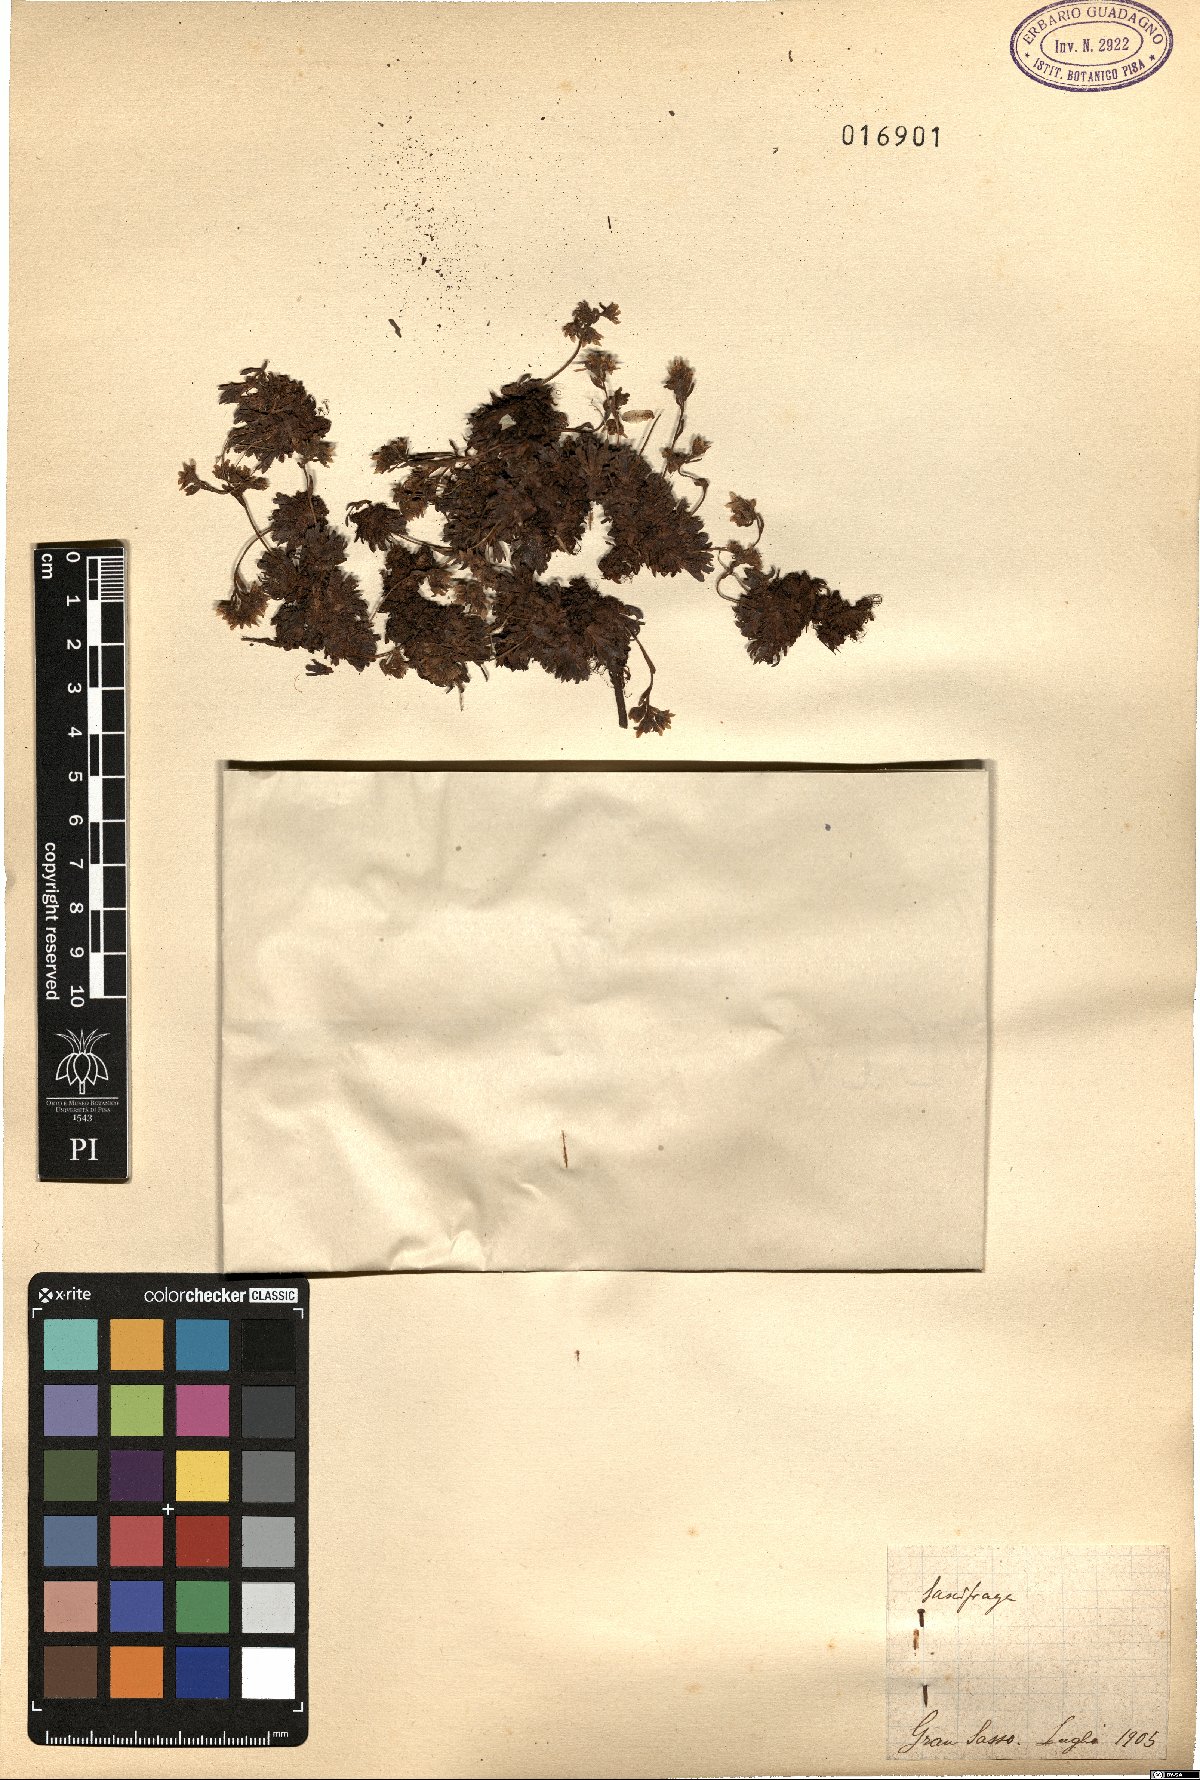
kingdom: Plantae
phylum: Tracheophyta
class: Magnoliopsida
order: Saxifragales
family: Saxifragaceae
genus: Saxifraga
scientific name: Saxifraga
